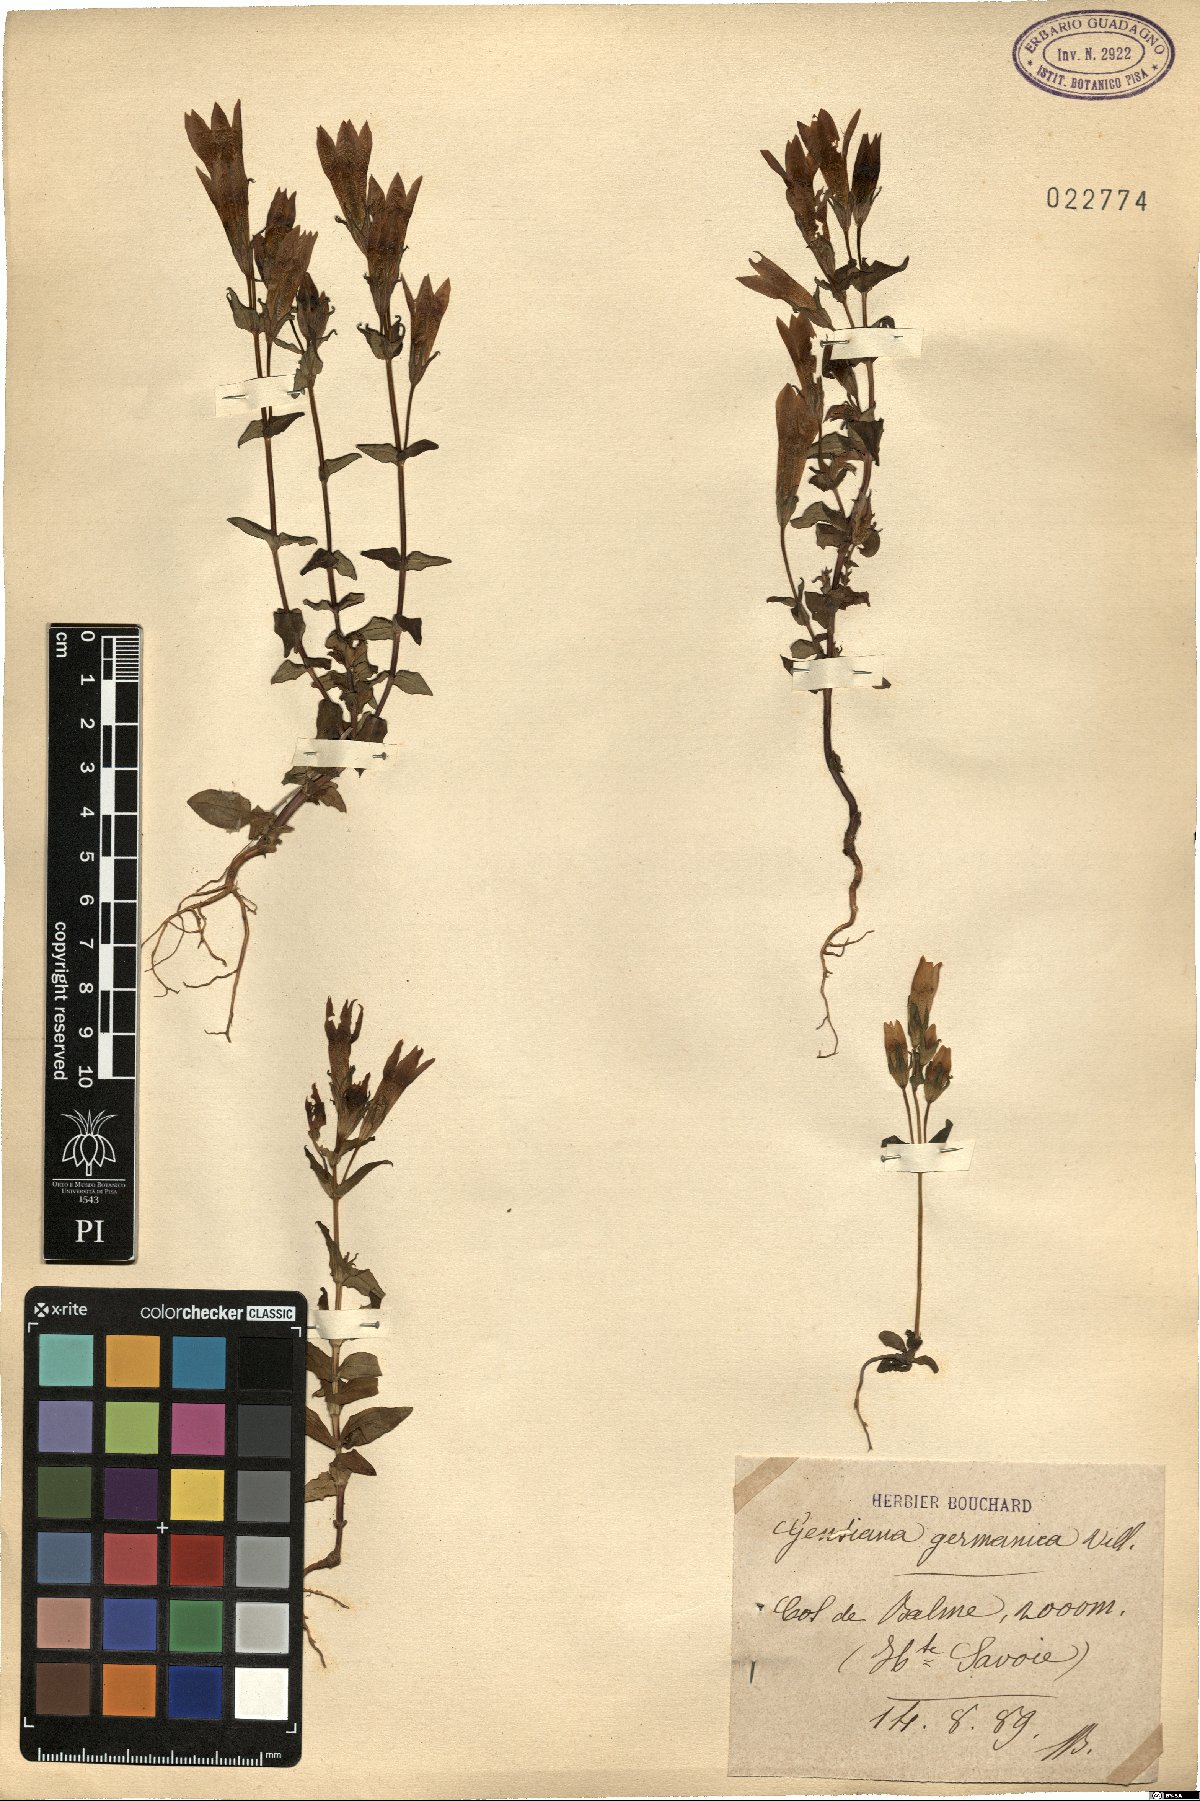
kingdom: Plantae
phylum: Tracheophyta
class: Magnoliopsida
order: Gentianales
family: Gentianaceae
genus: Gentianella
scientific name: Gentianella germanica
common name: Chiltern-gentian
